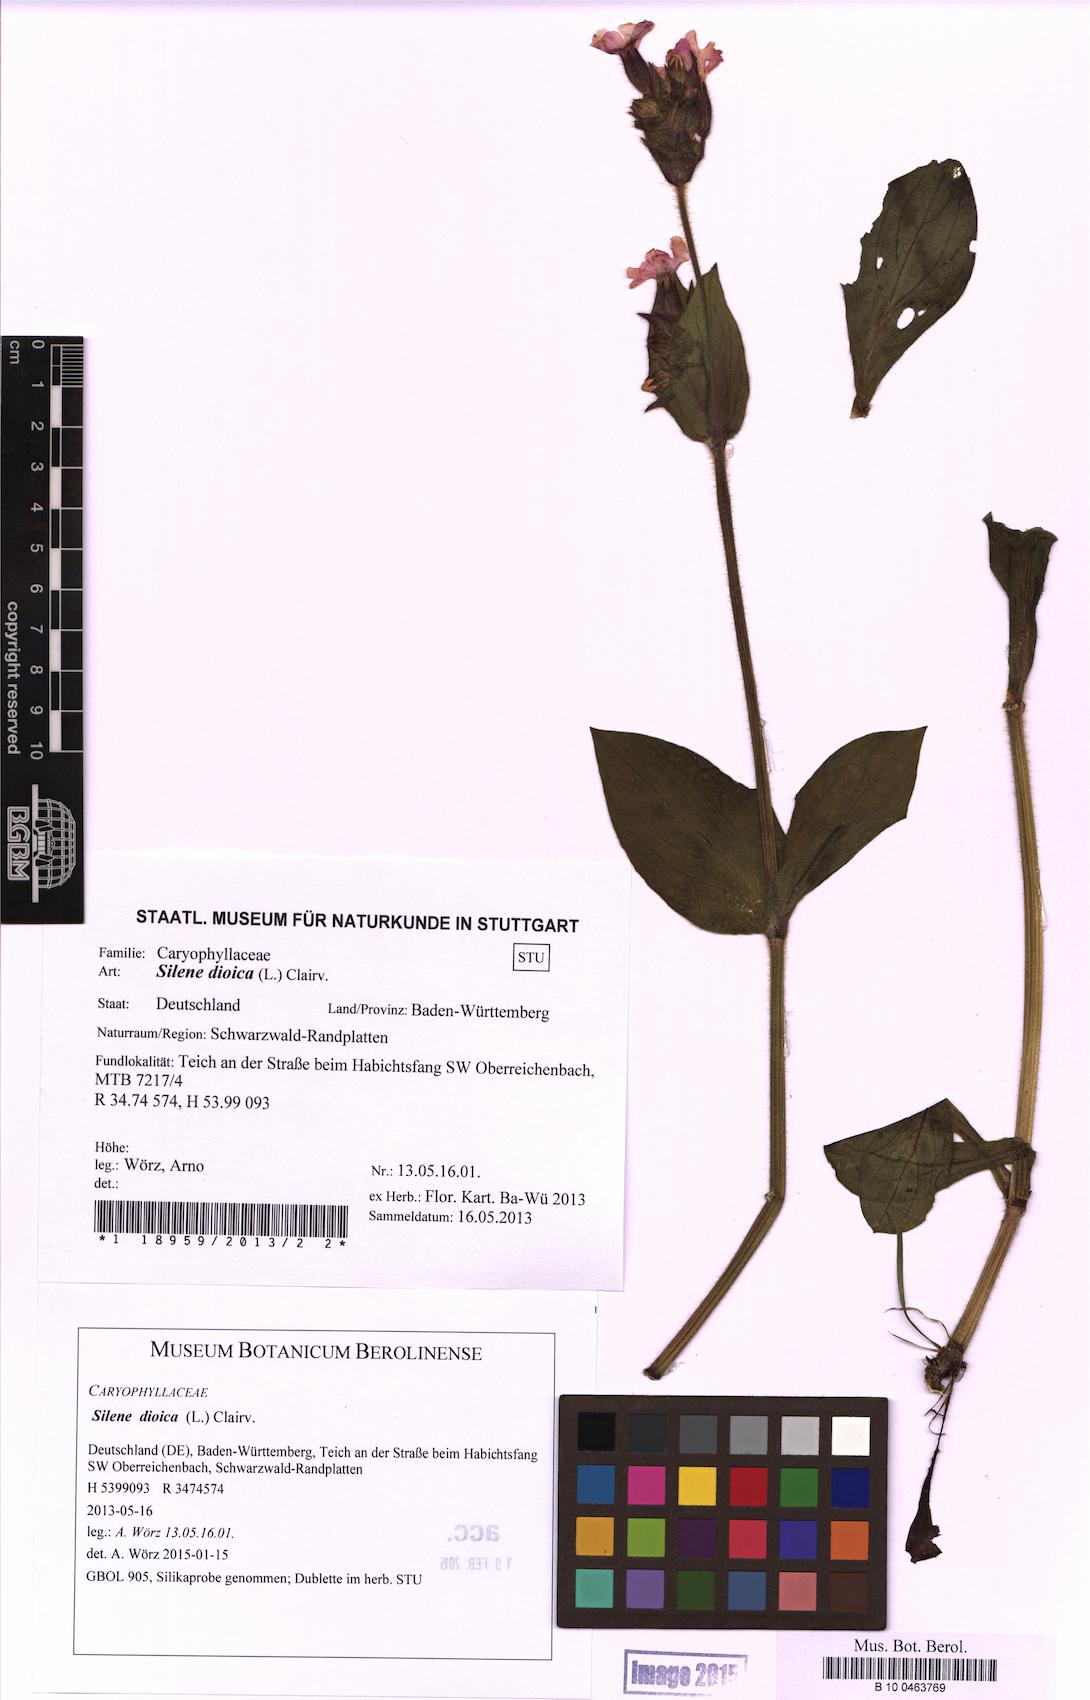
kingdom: Plantae
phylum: Tracheophyta
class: Magnoliopsida
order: Caryophyllales
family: Caryophyllaceae
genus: Silene
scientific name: Silene dioica
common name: Red campion
